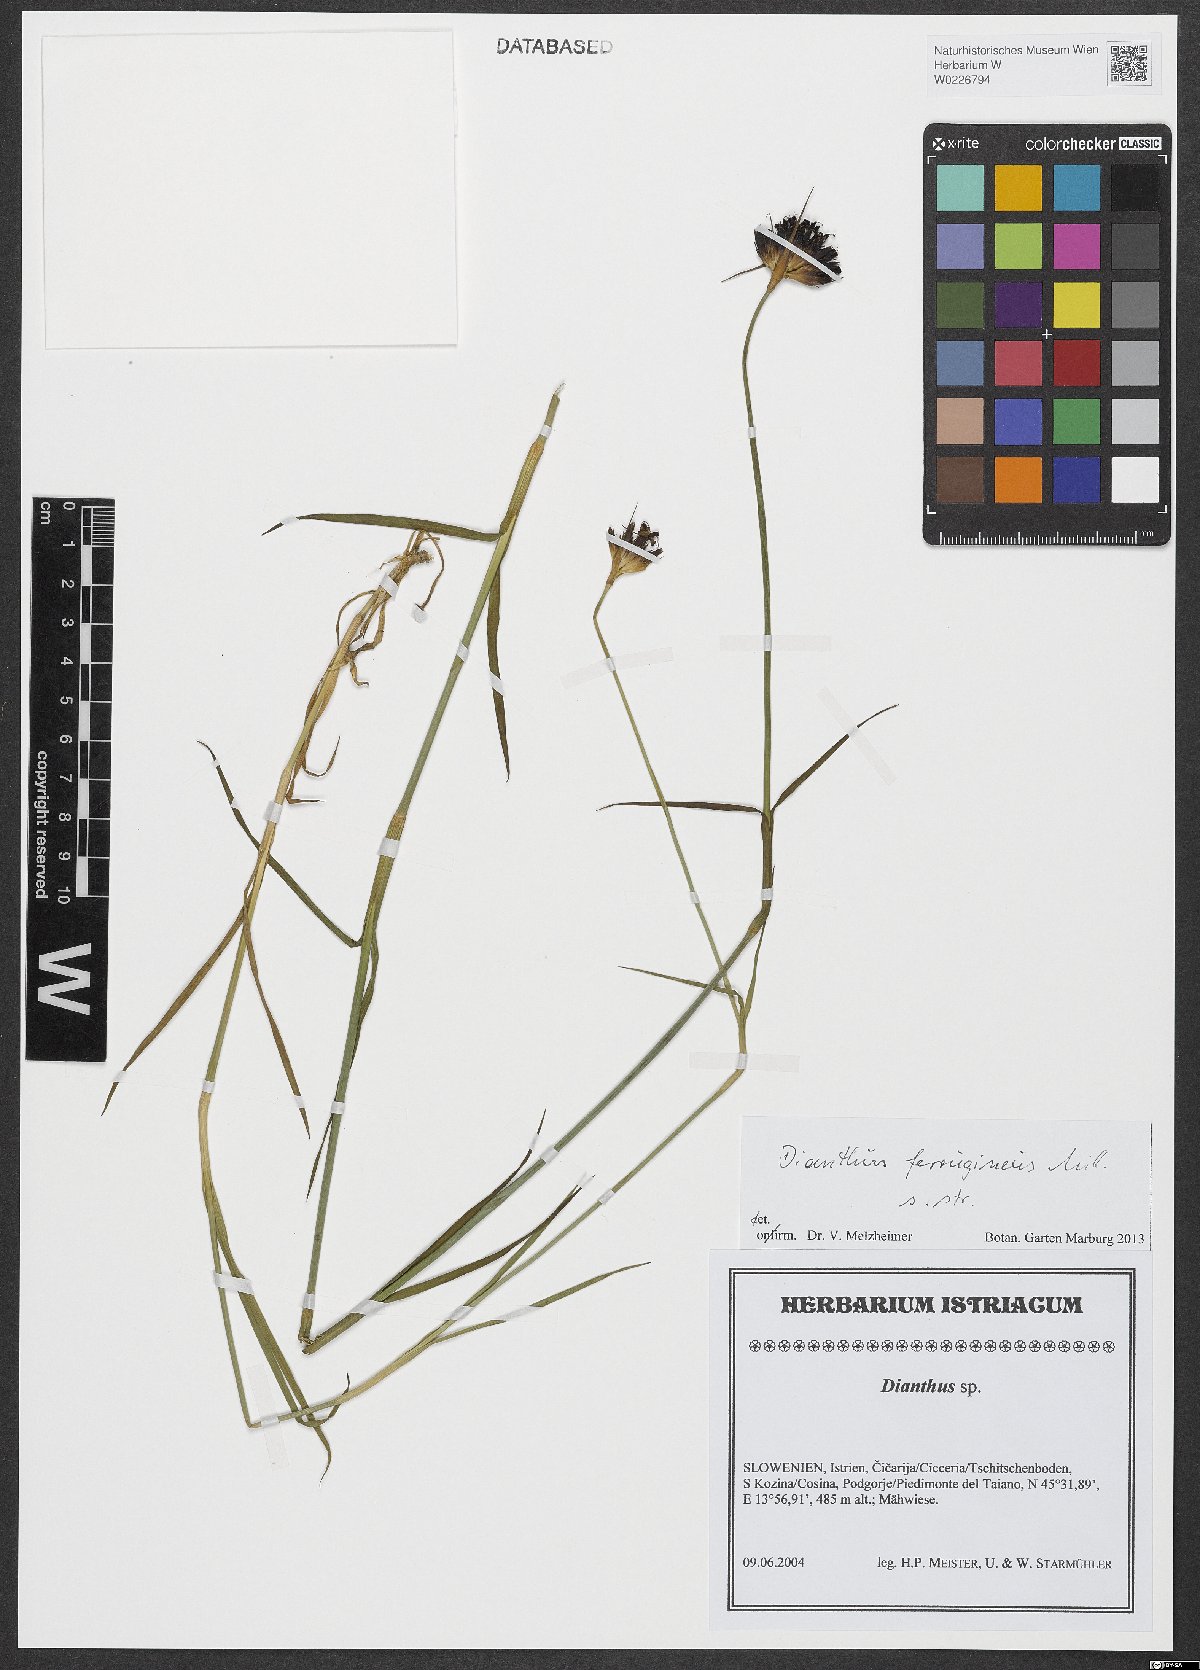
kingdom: Plantae
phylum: Tracheophyta
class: Magnoliopsida
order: Caryophyllales
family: Caryophyllaceae
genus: Dianthus
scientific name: Dianthus
